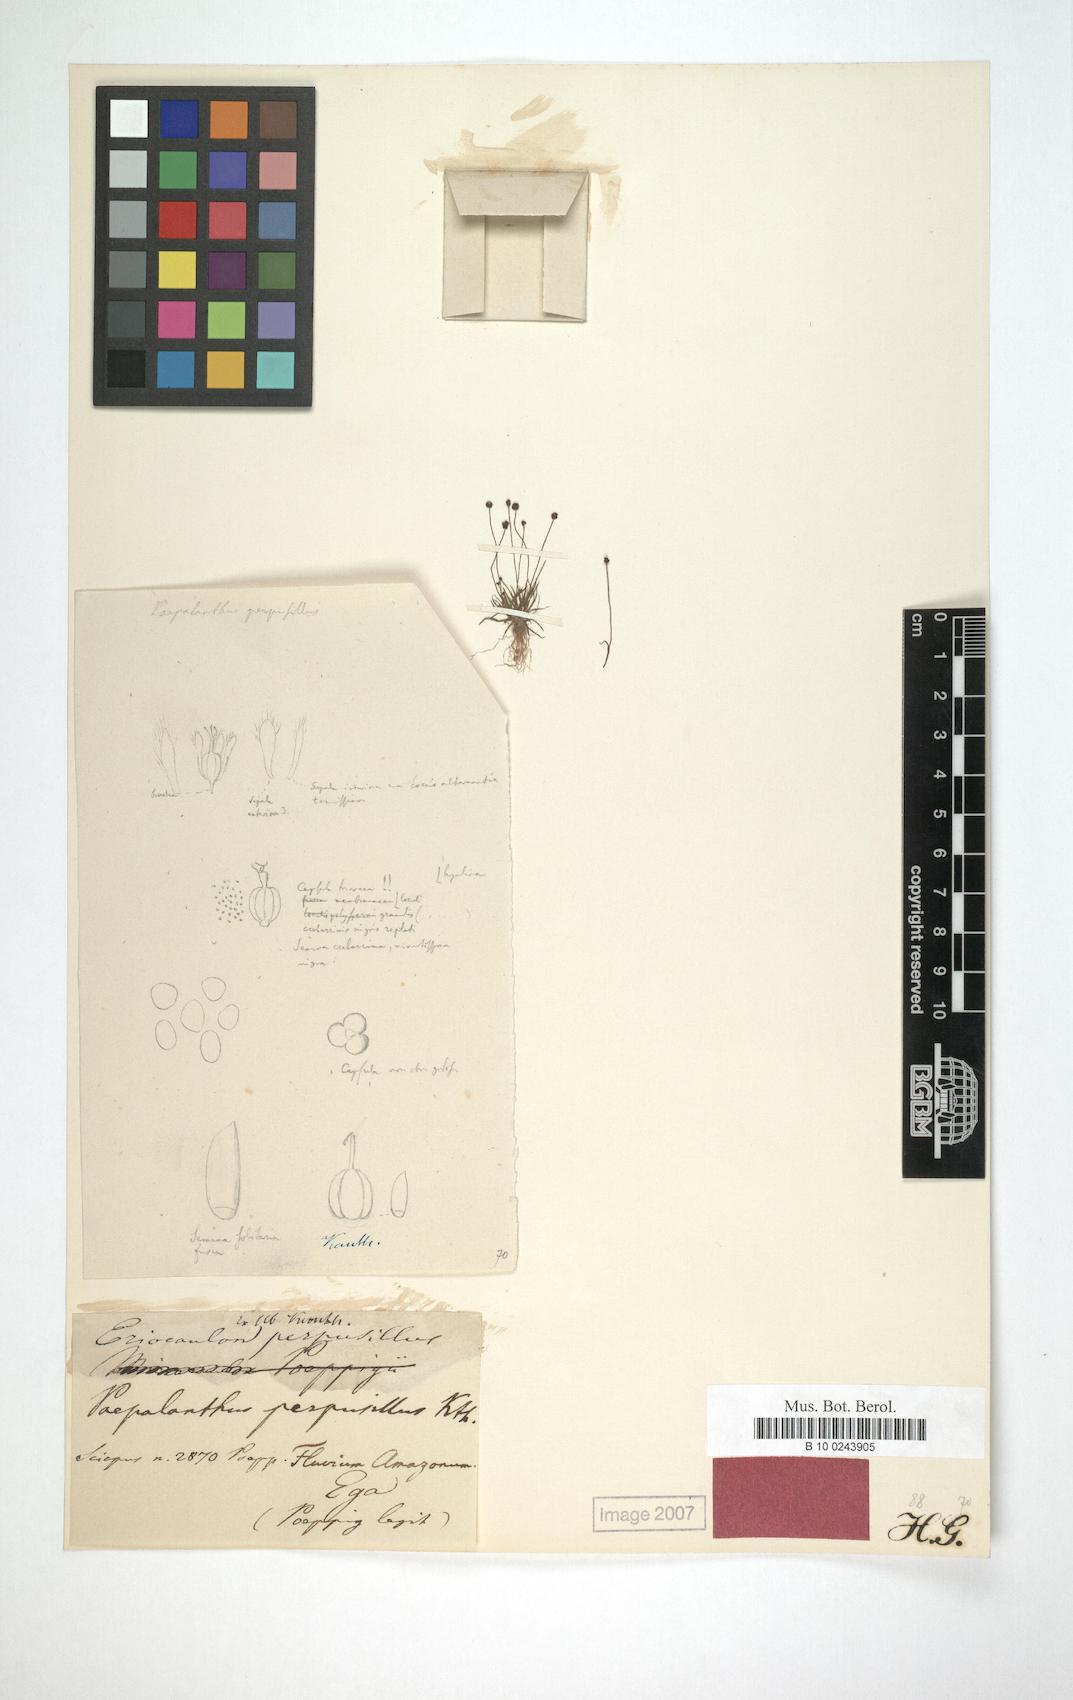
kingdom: Plantae
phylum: Tracheophyta
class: Liliopsida
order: Poales
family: Eriocaulaceae
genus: Paepalanthus
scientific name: Paepalanthus perpusillus
